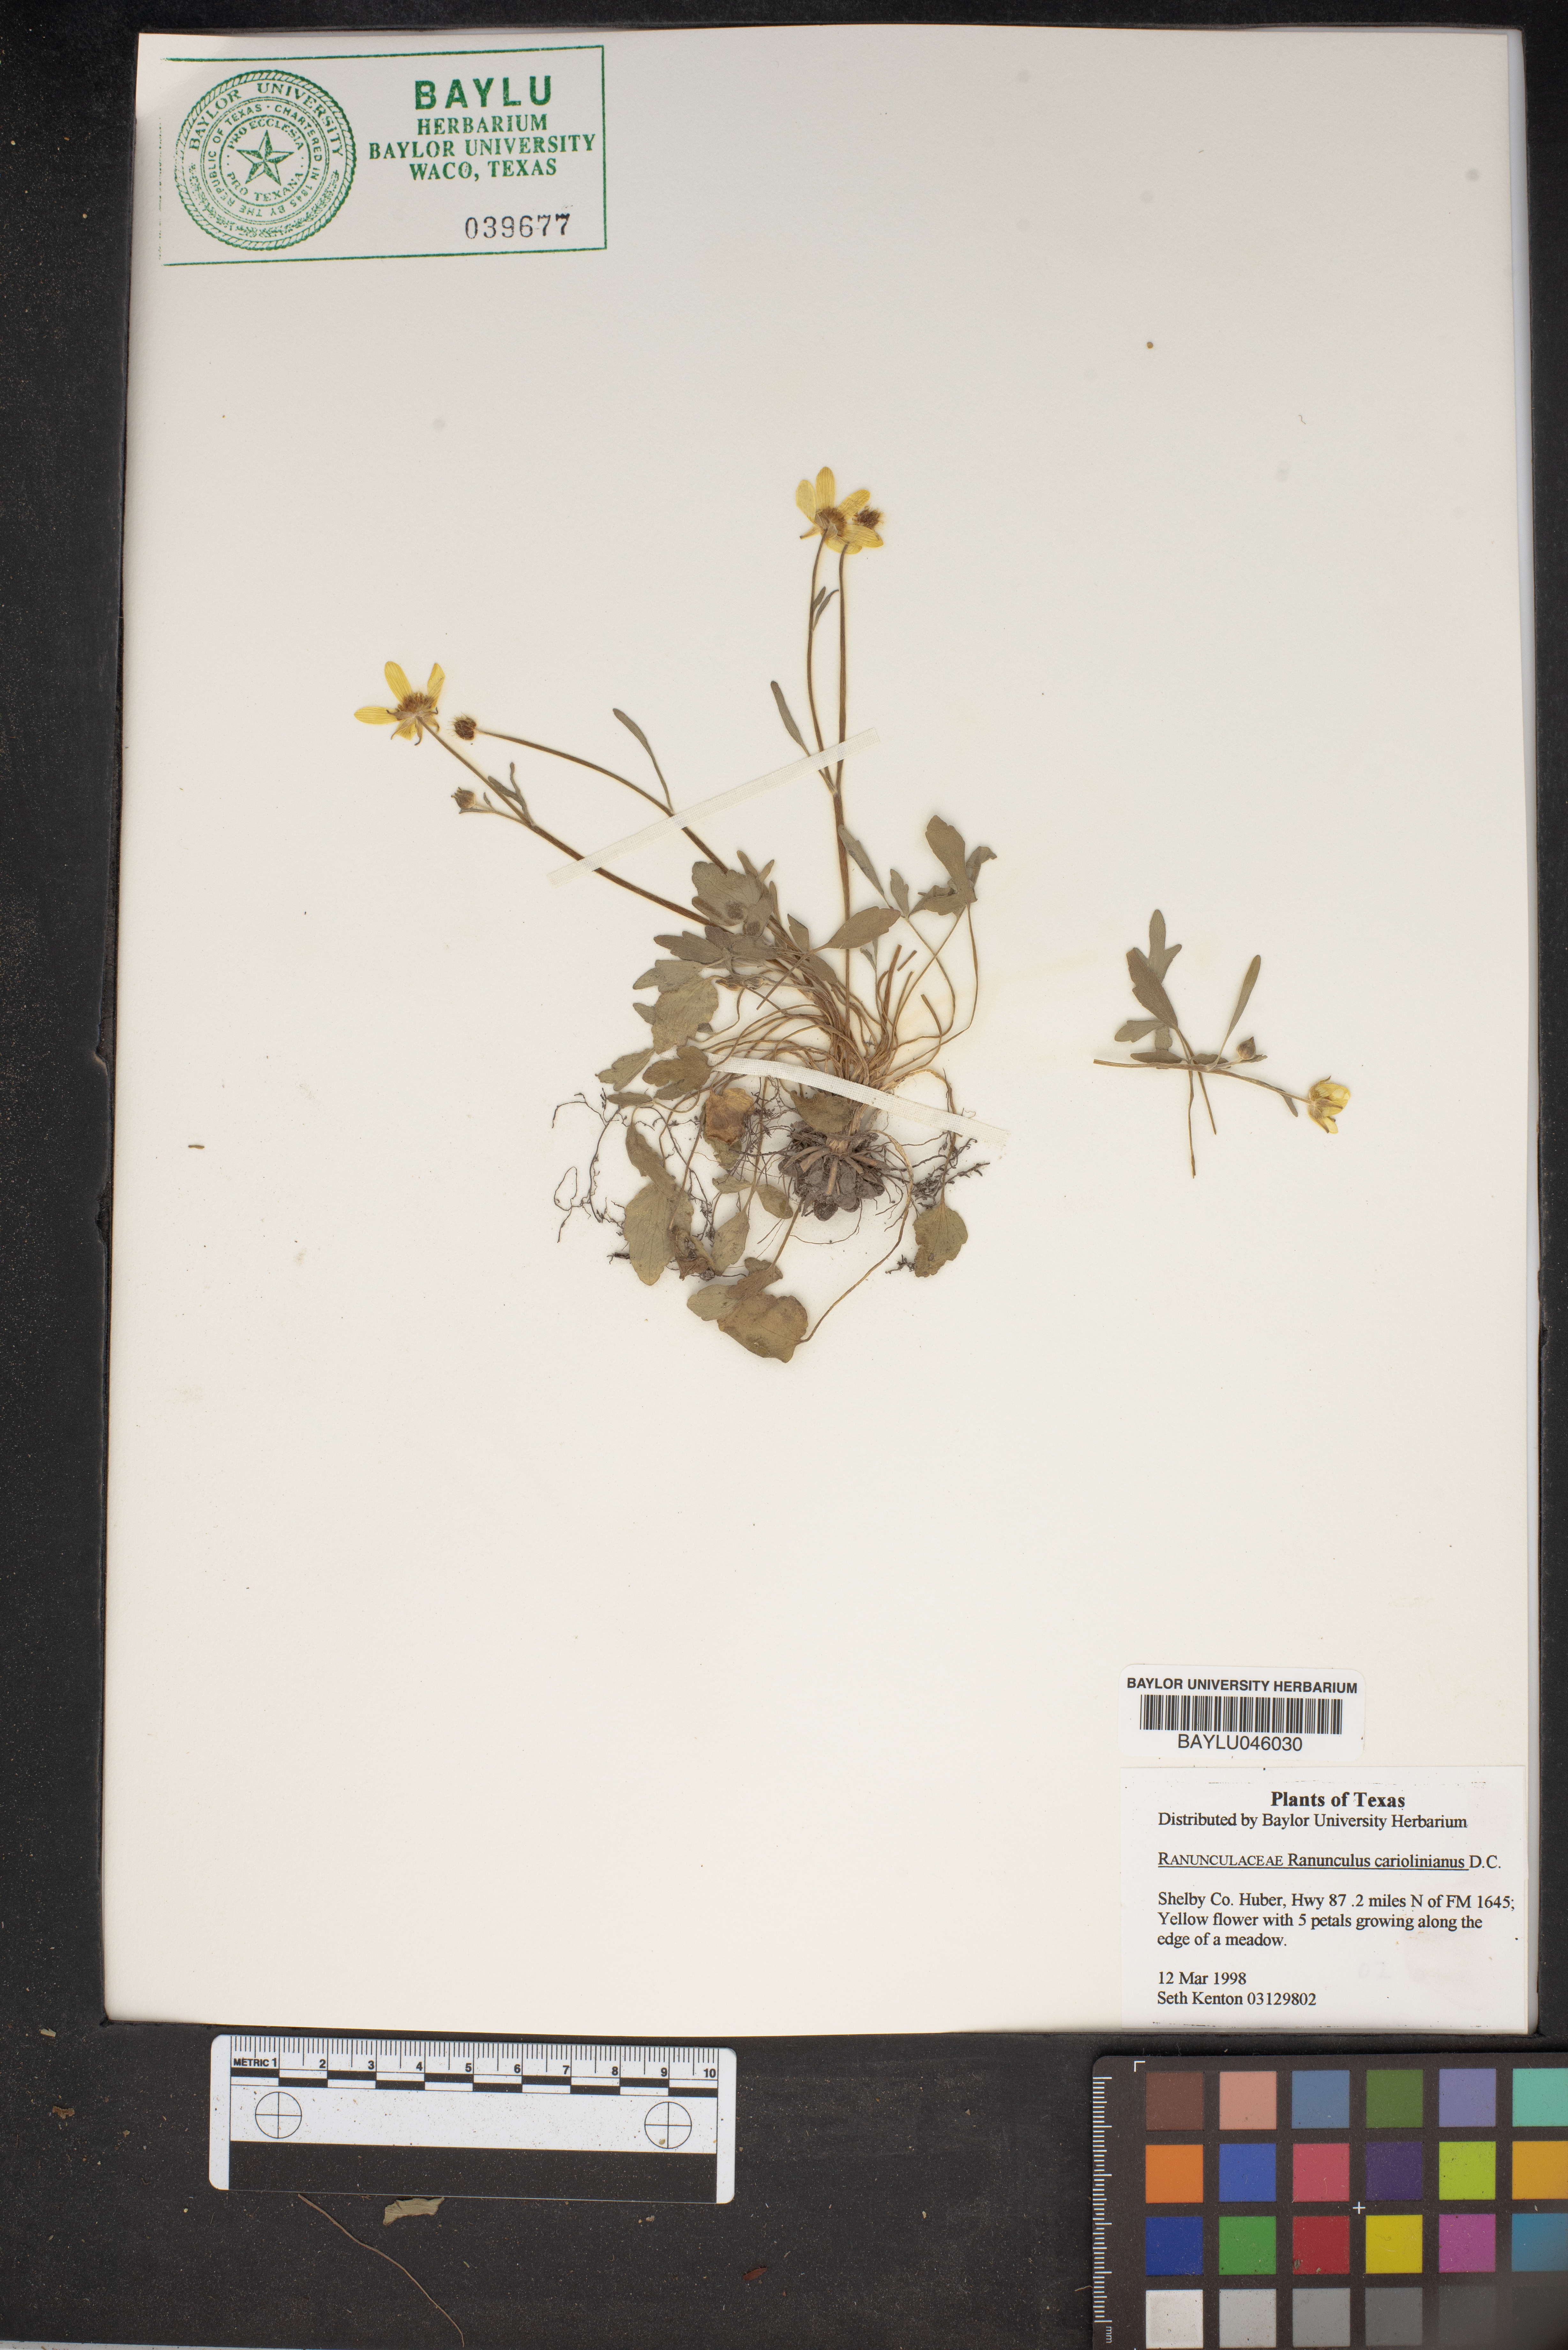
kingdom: Plantae
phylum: Tracheophyta
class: Magnoliopsida
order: Ranunculales
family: Ranunculaceae
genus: Ranunculus
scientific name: Ranunculus hispidus
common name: Bristly buttercup
